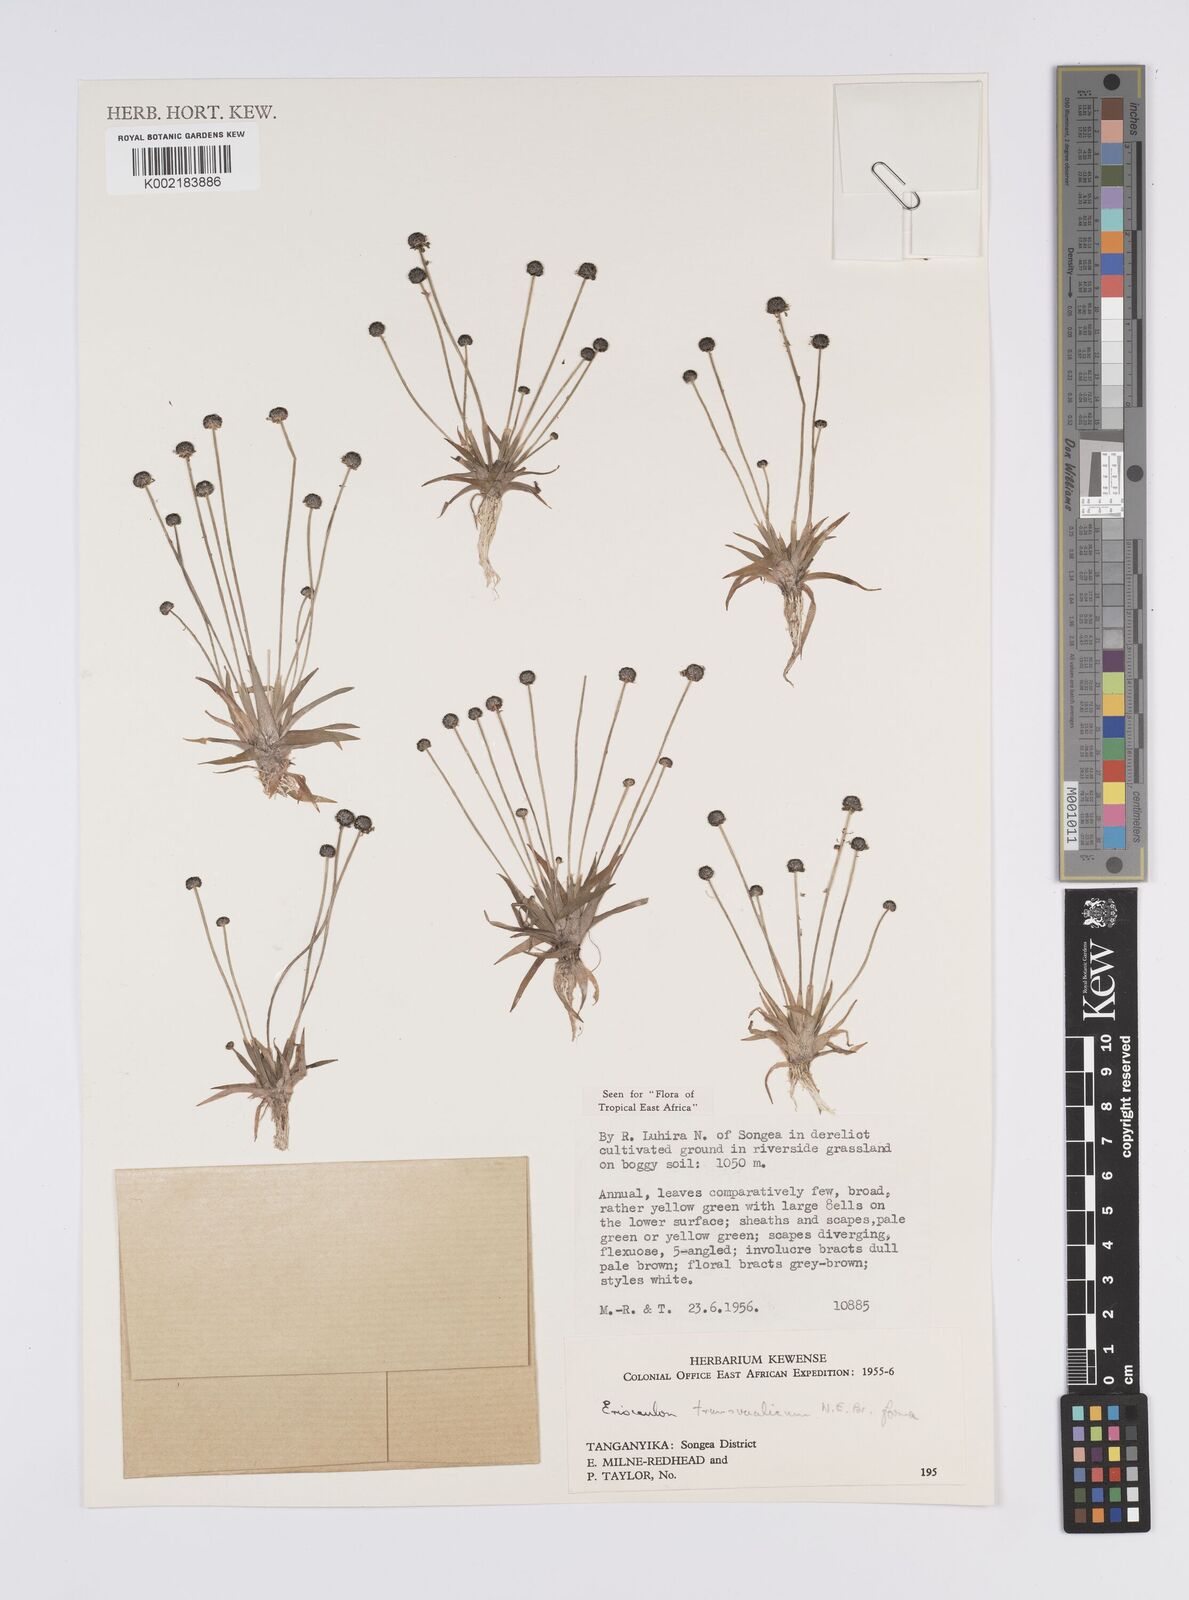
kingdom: Plantae
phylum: Tracheophyta
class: Liliopsida
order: Poales
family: Eriocaulaceae
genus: Eriocaulon
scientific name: Eriocaulon transvaalicum
